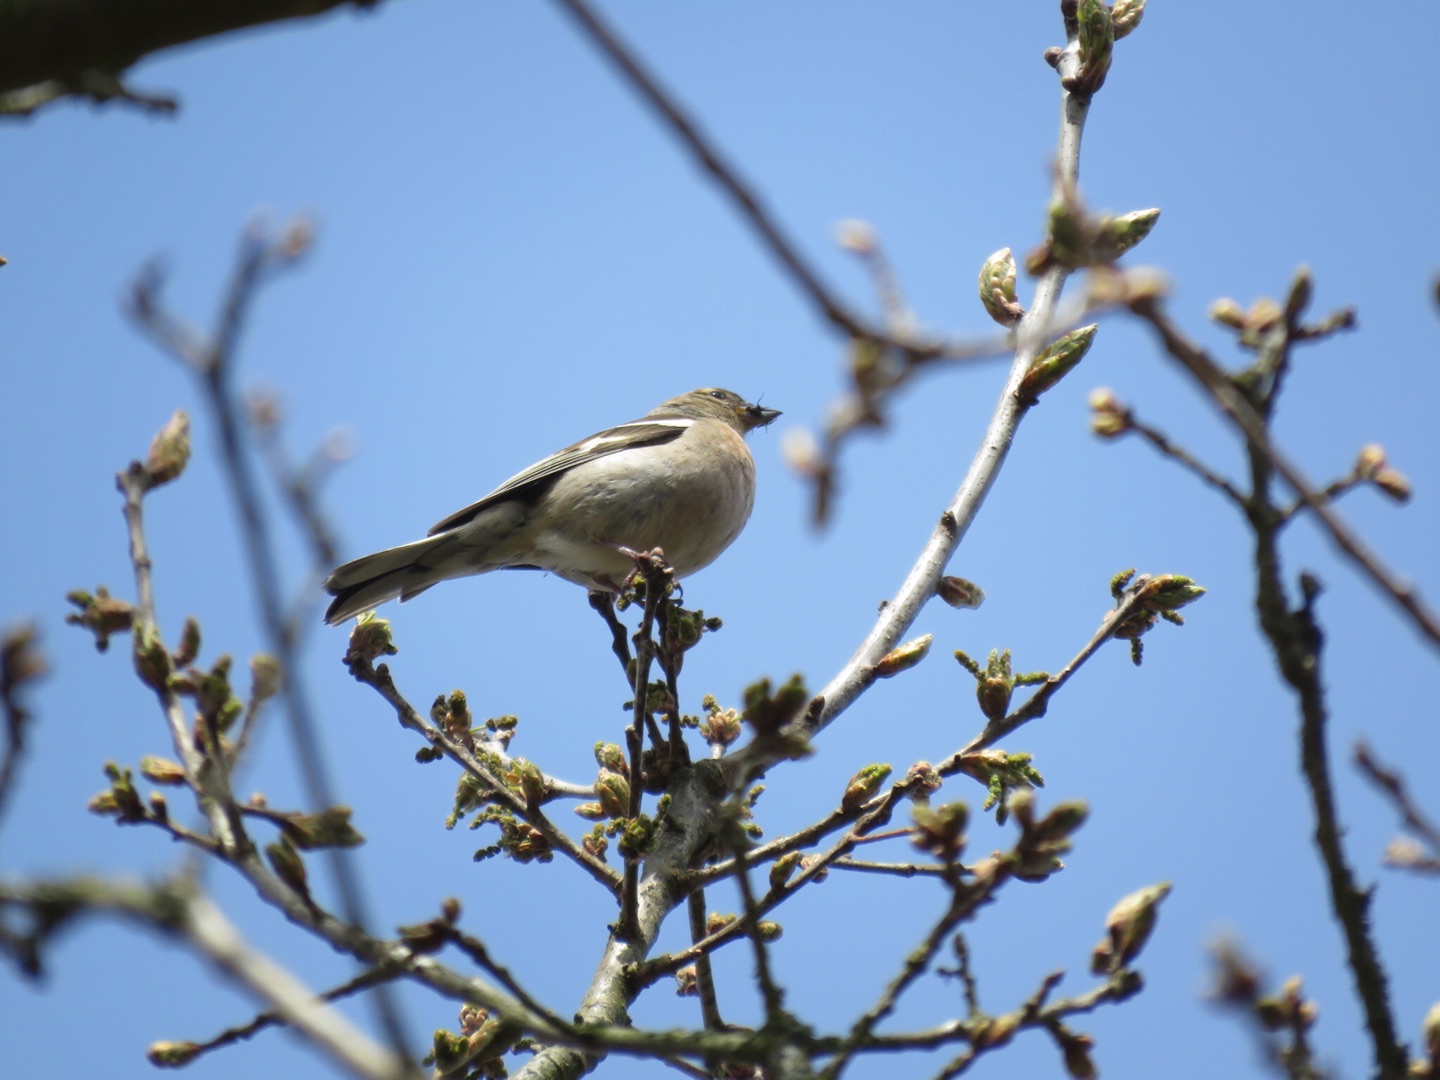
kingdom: Animalia
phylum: Chordata
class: Aves
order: Passeriformes
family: Fringillidae
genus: Fringilla
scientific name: Fringilla coelebs
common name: Bogfinke
